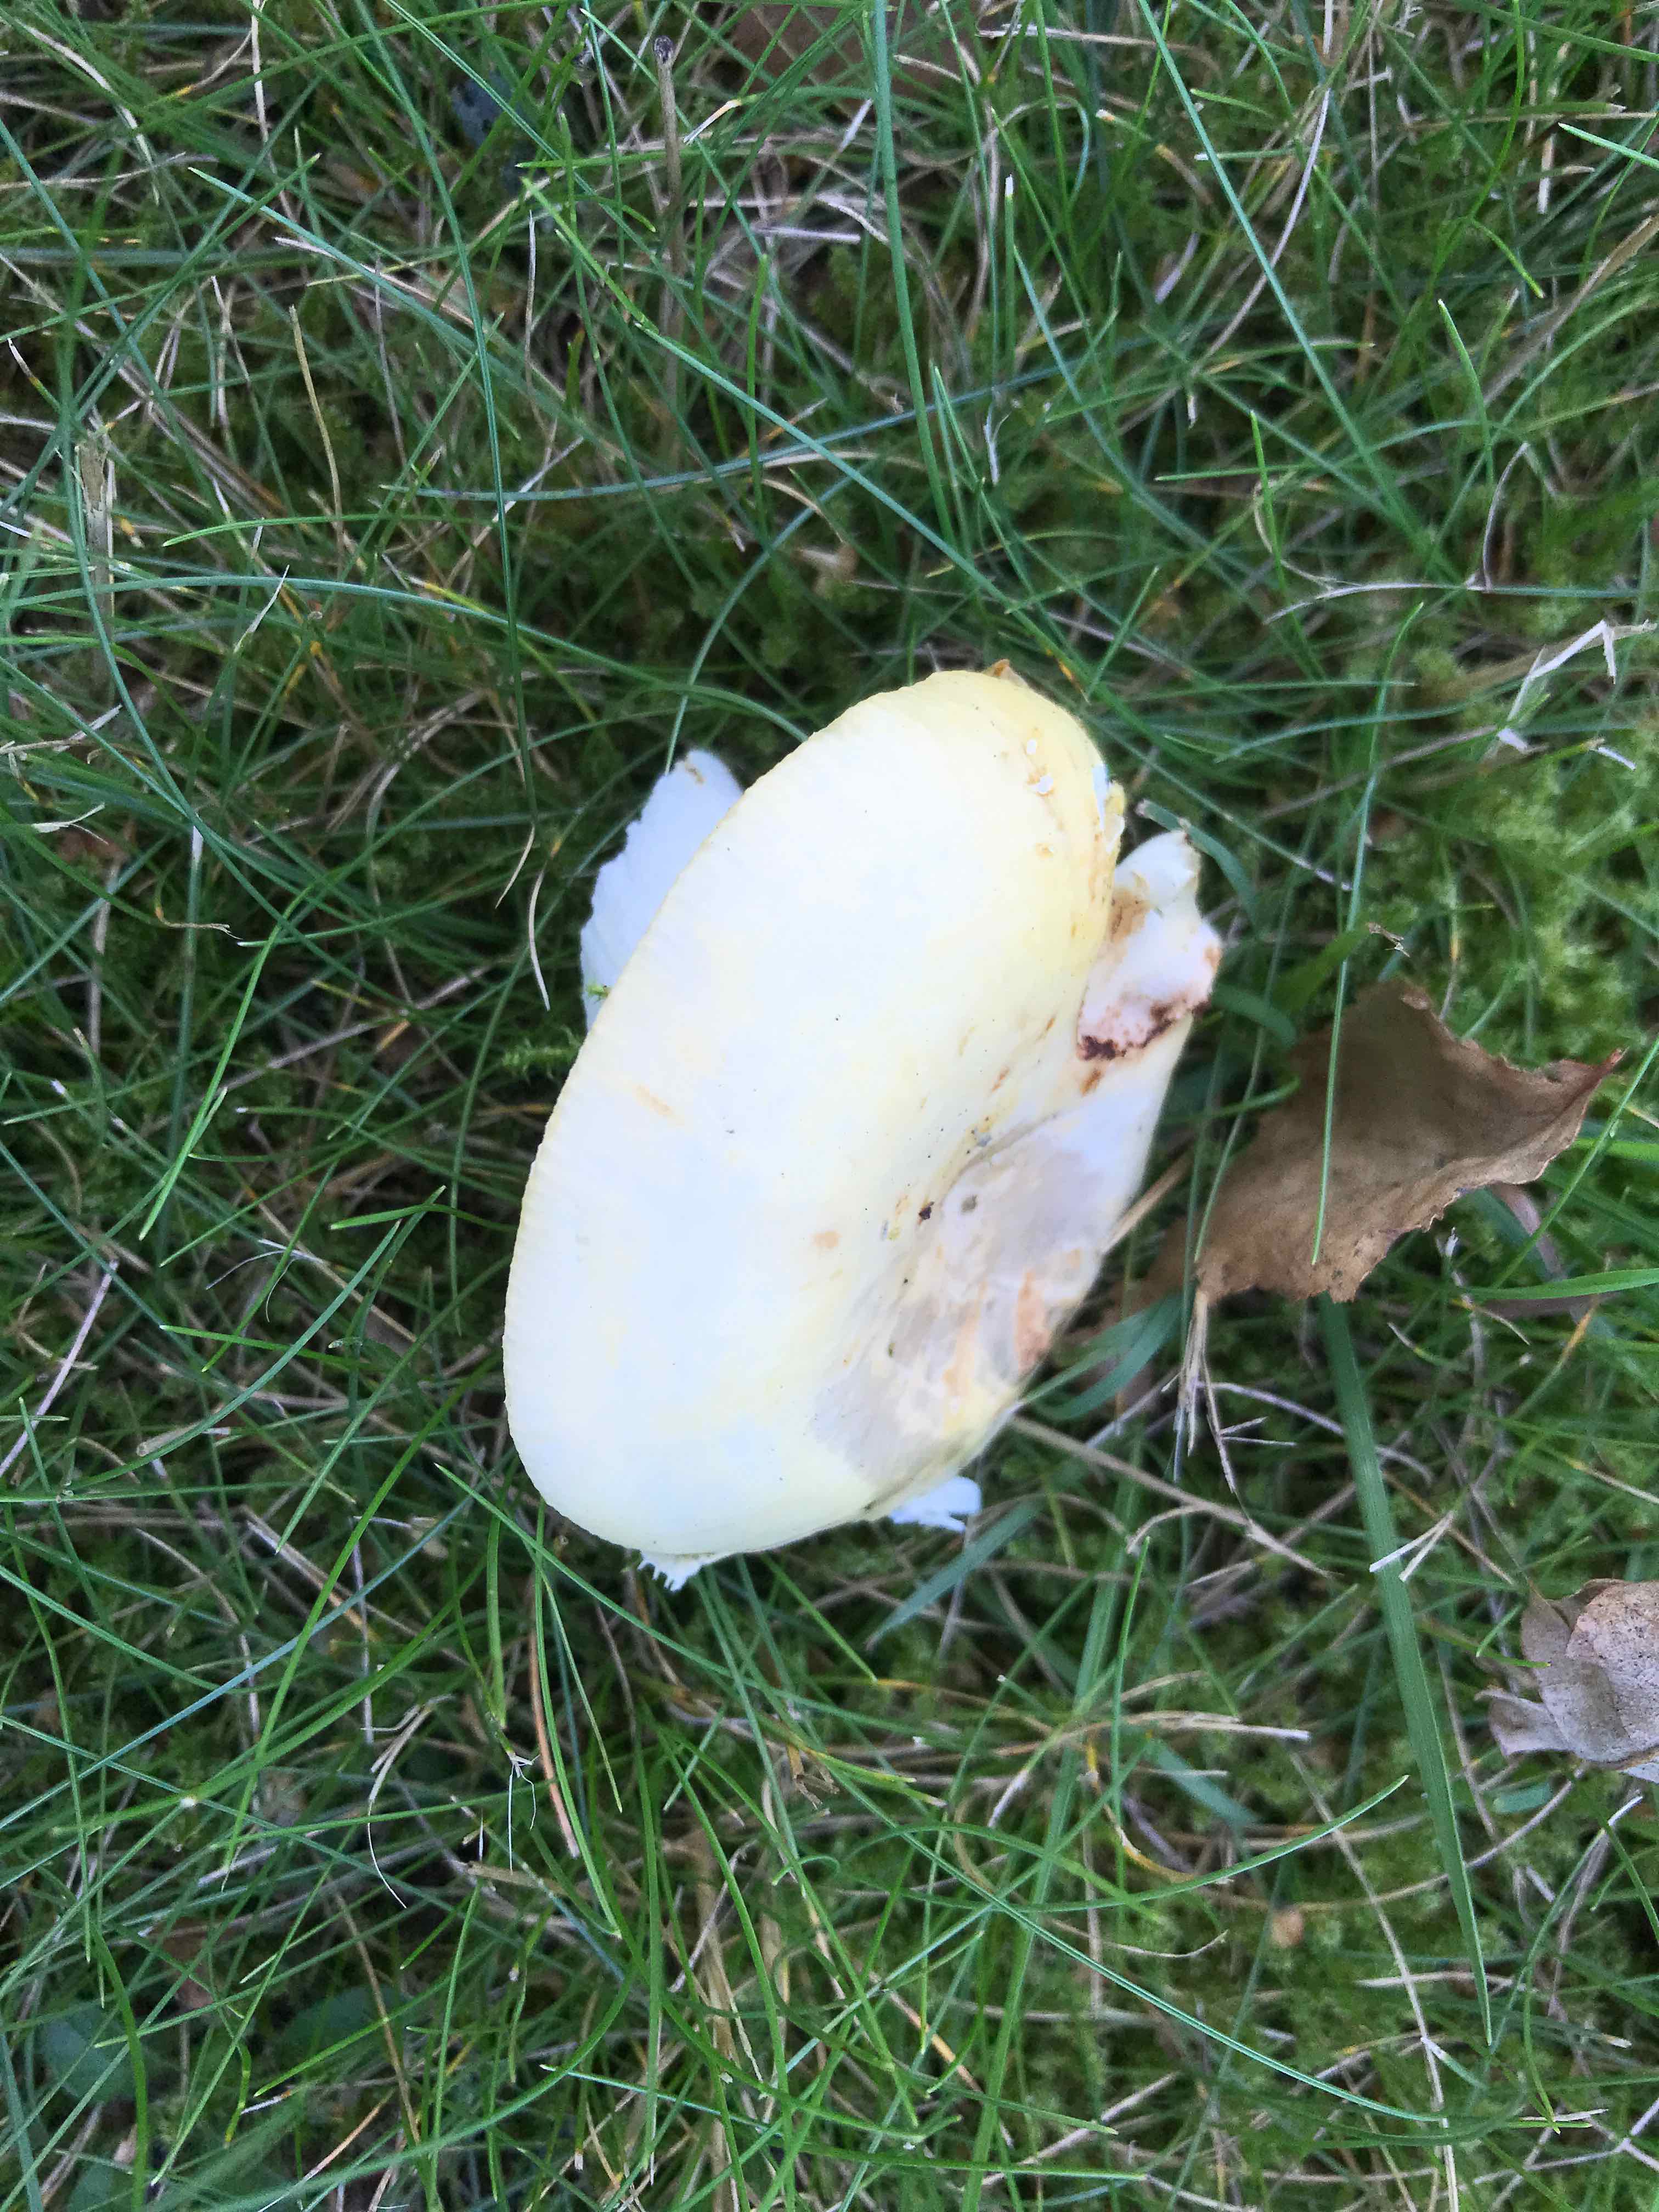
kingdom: Fungi
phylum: Basidiomycota
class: Agaricomycetes
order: Russulales
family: Russulaceae
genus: Russula
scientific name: Russula claroflava
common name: birke-skørhat
